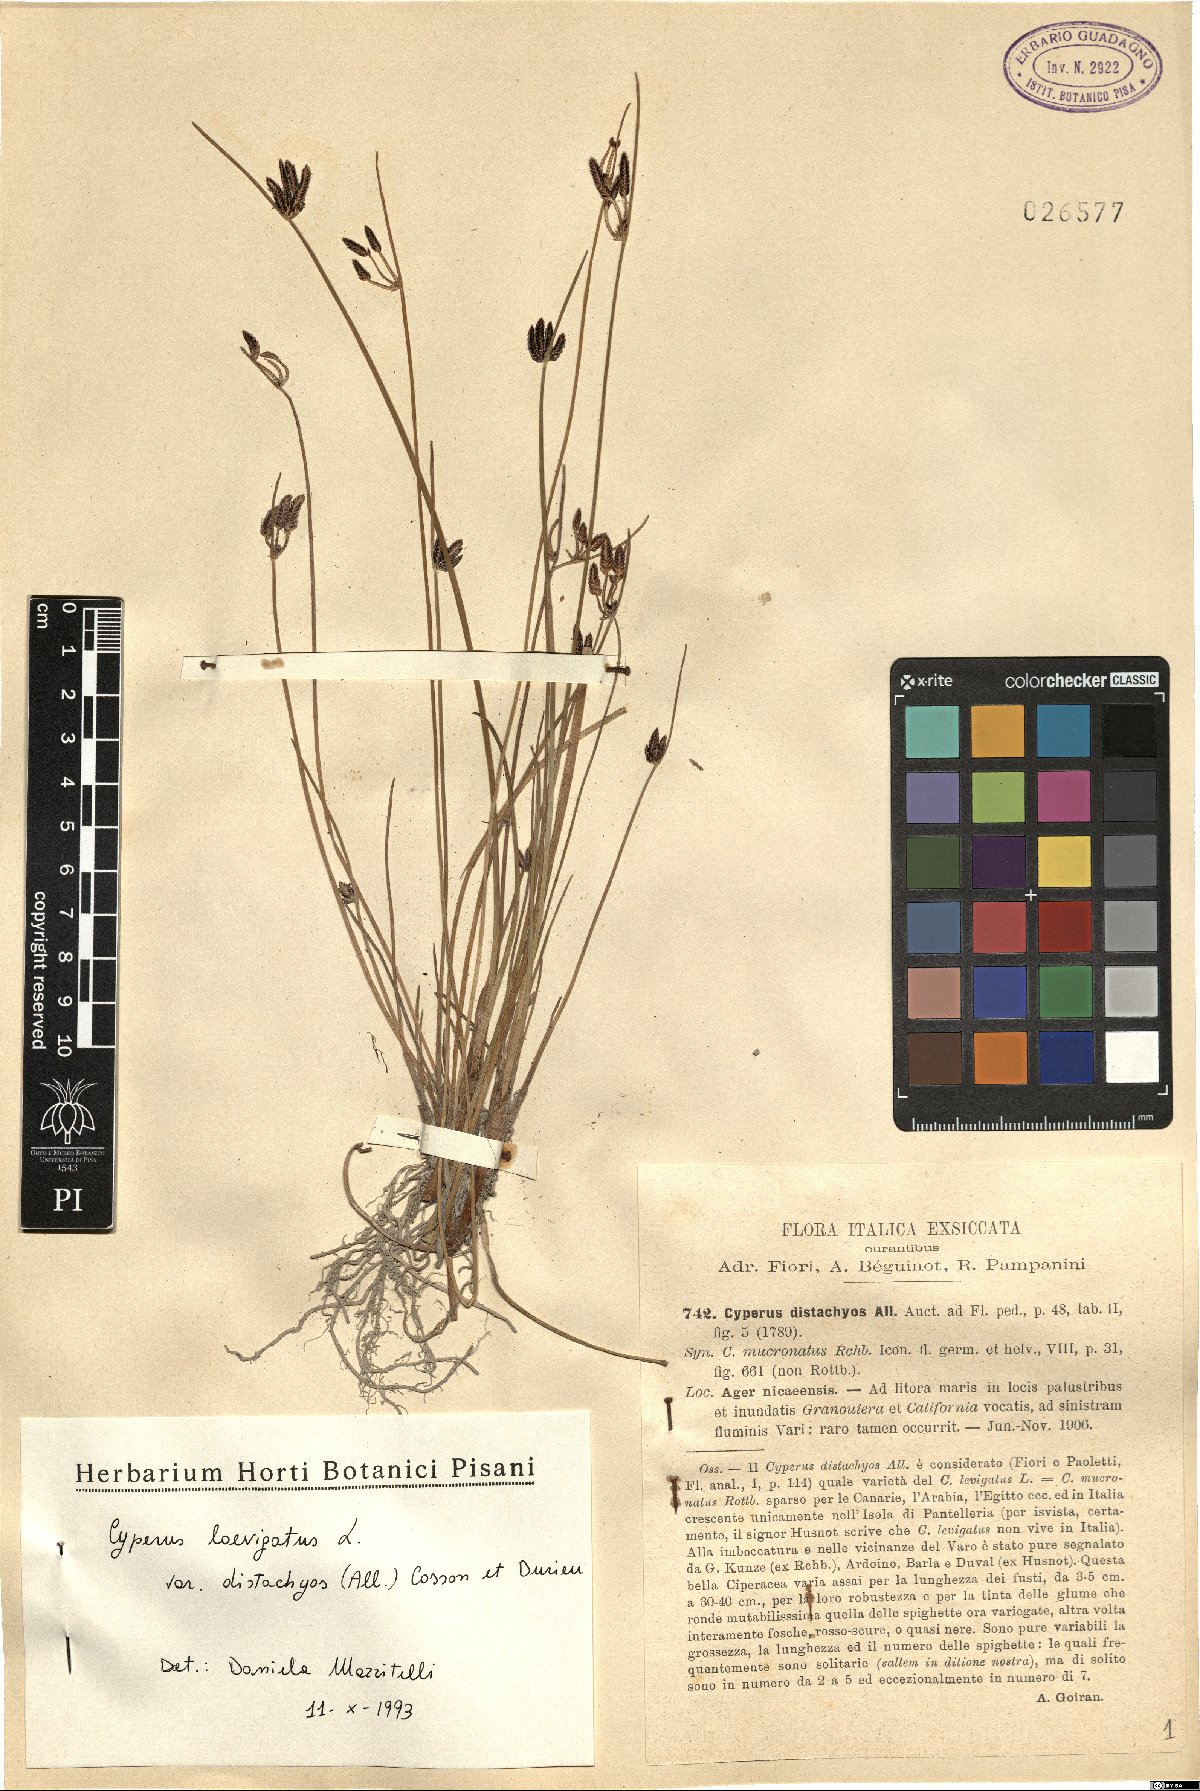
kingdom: Plantae
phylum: Tracheophyta
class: Liliopsida
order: Poales
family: Cyperaceae
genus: Cyperus
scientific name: Cyperus laevigatus
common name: Smooth flat sedge
